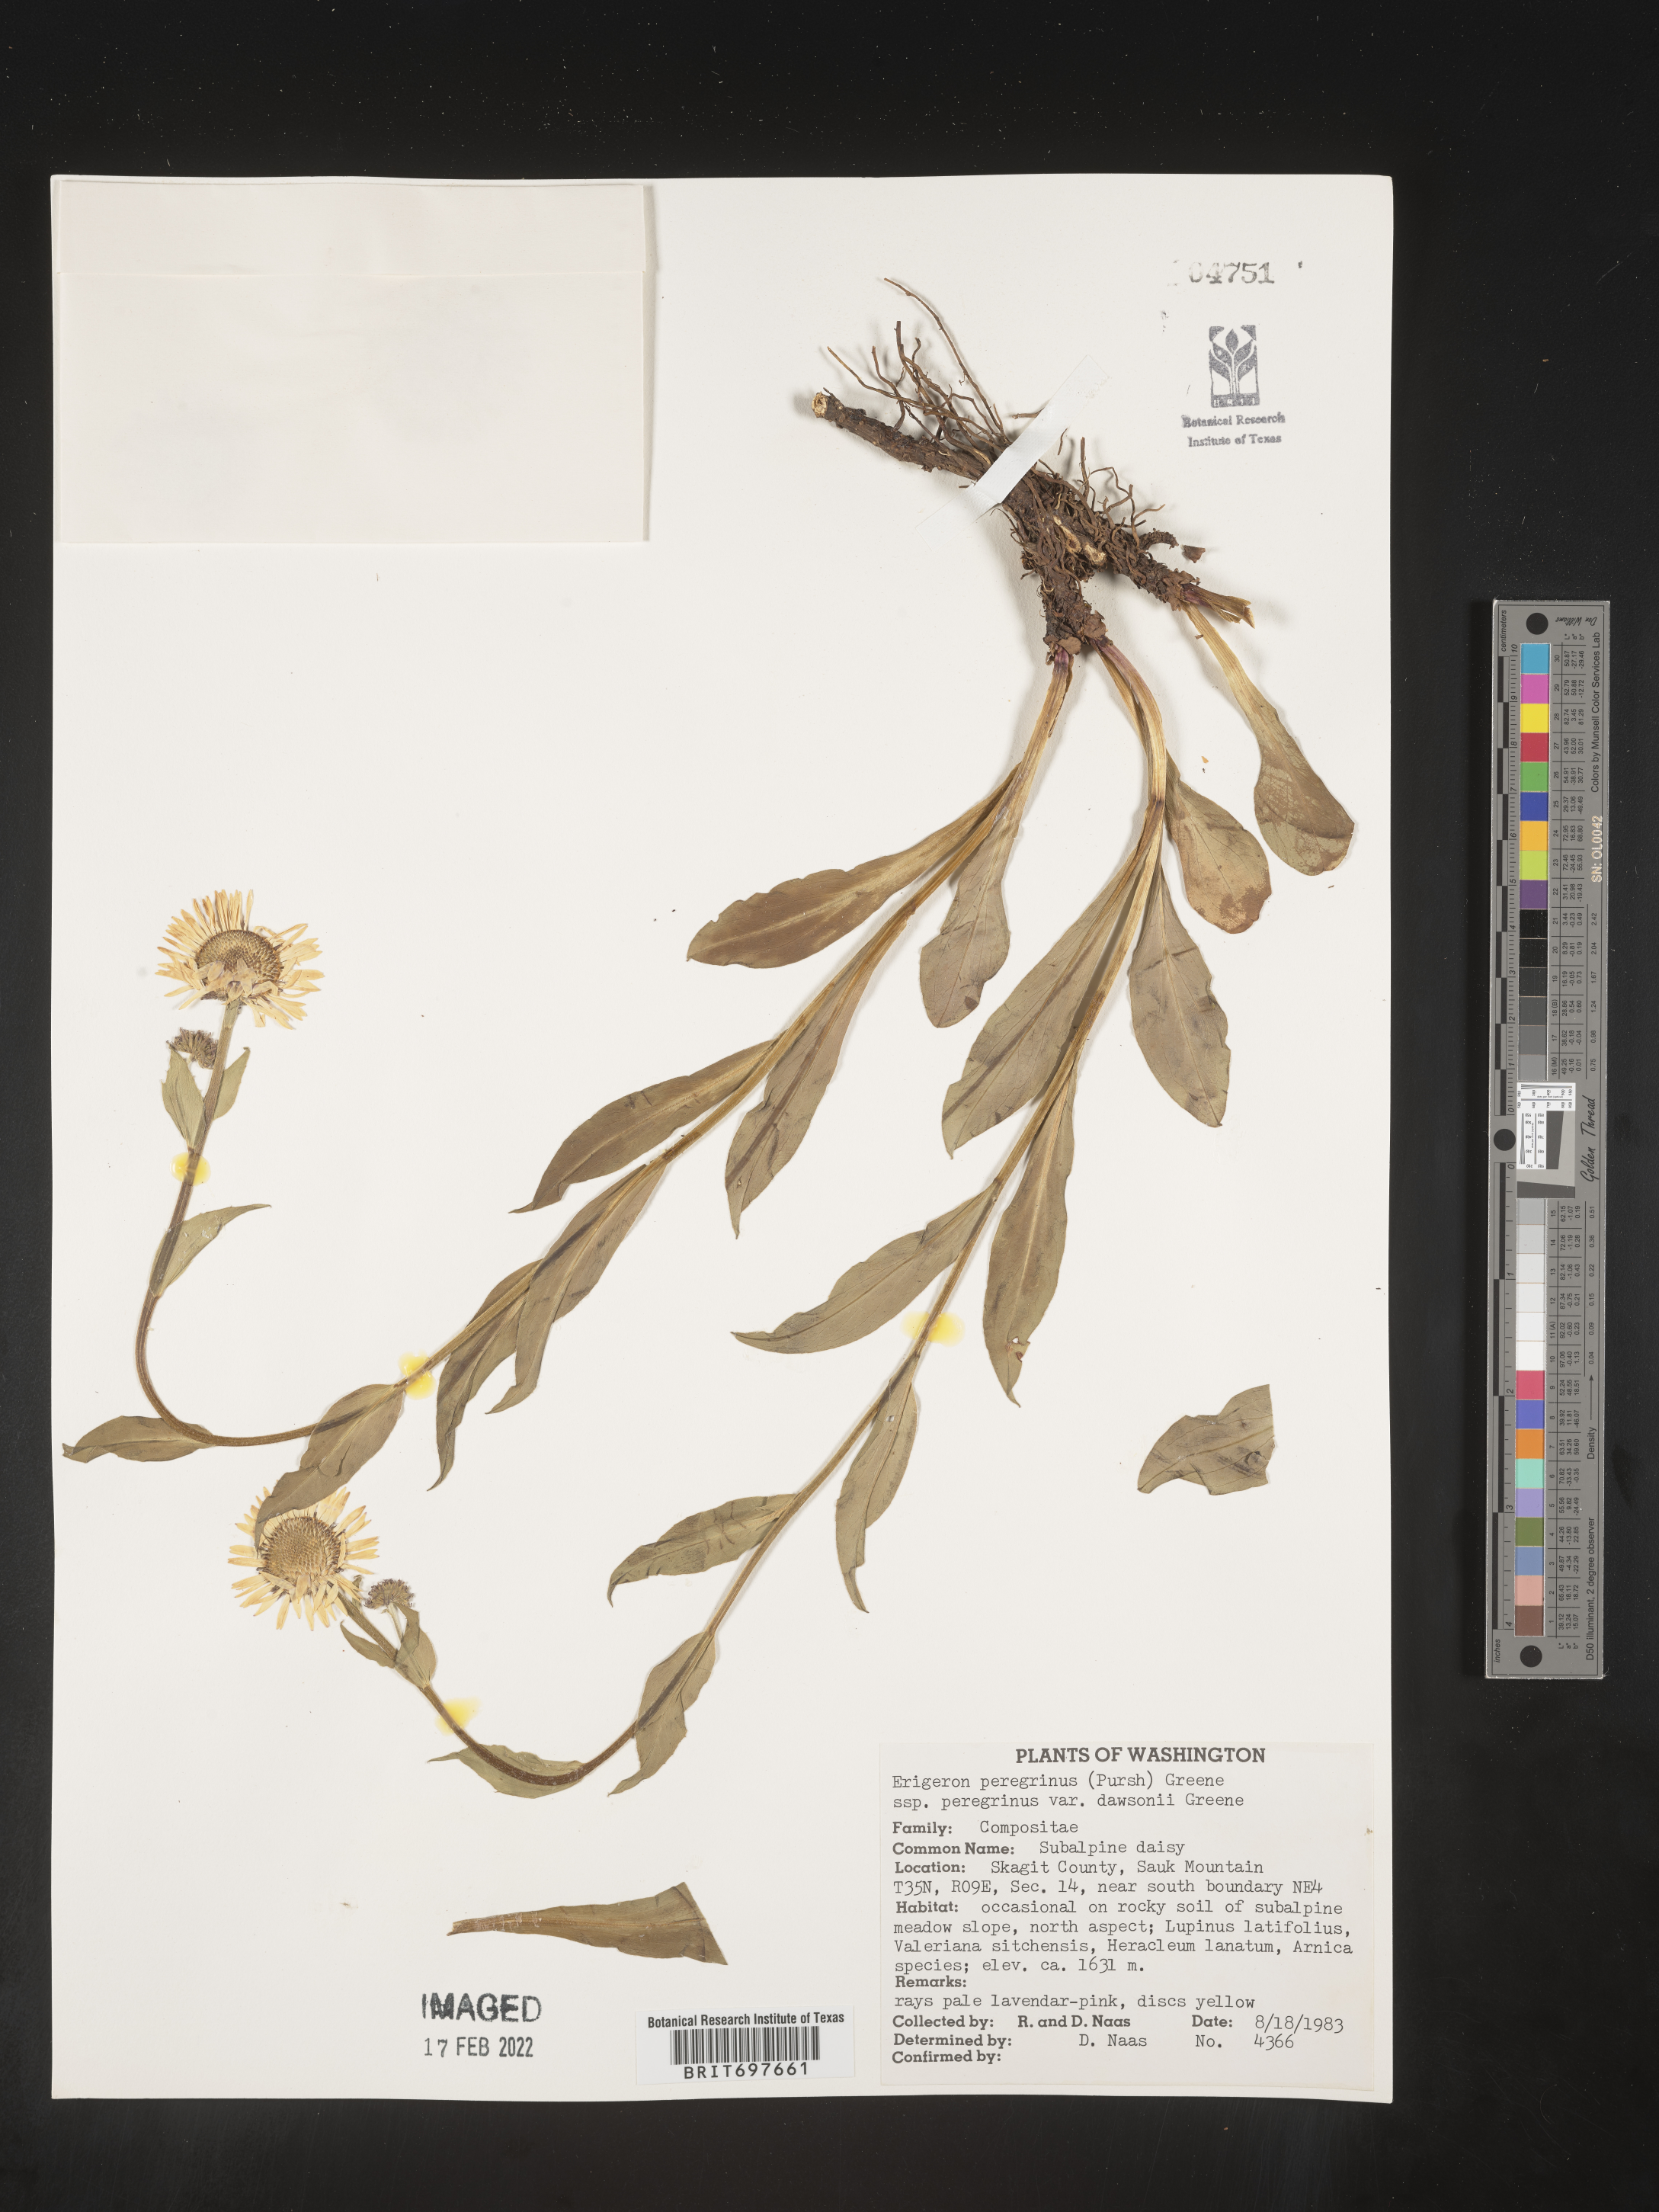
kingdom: Plantae
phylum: Tracheophyta
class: Magnoliopsida
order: Asterales
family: Asteraceae
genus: Erigeron
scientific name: Erigeron peregrinus
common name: Peregrine fleabane
